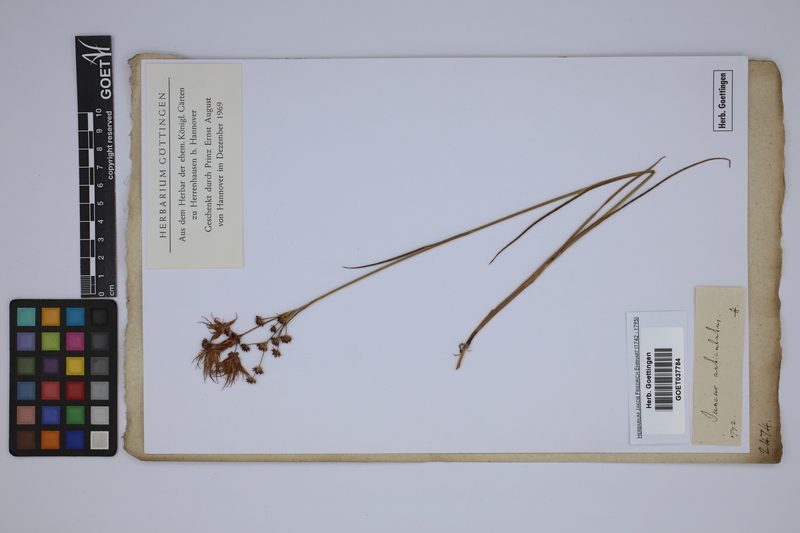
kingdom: Plantae
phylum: Tracheophyta
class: Liliopsida
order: Poales
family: Juncaceae
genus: Juncus
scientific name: Juncus articulatus
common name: Jointed rush
